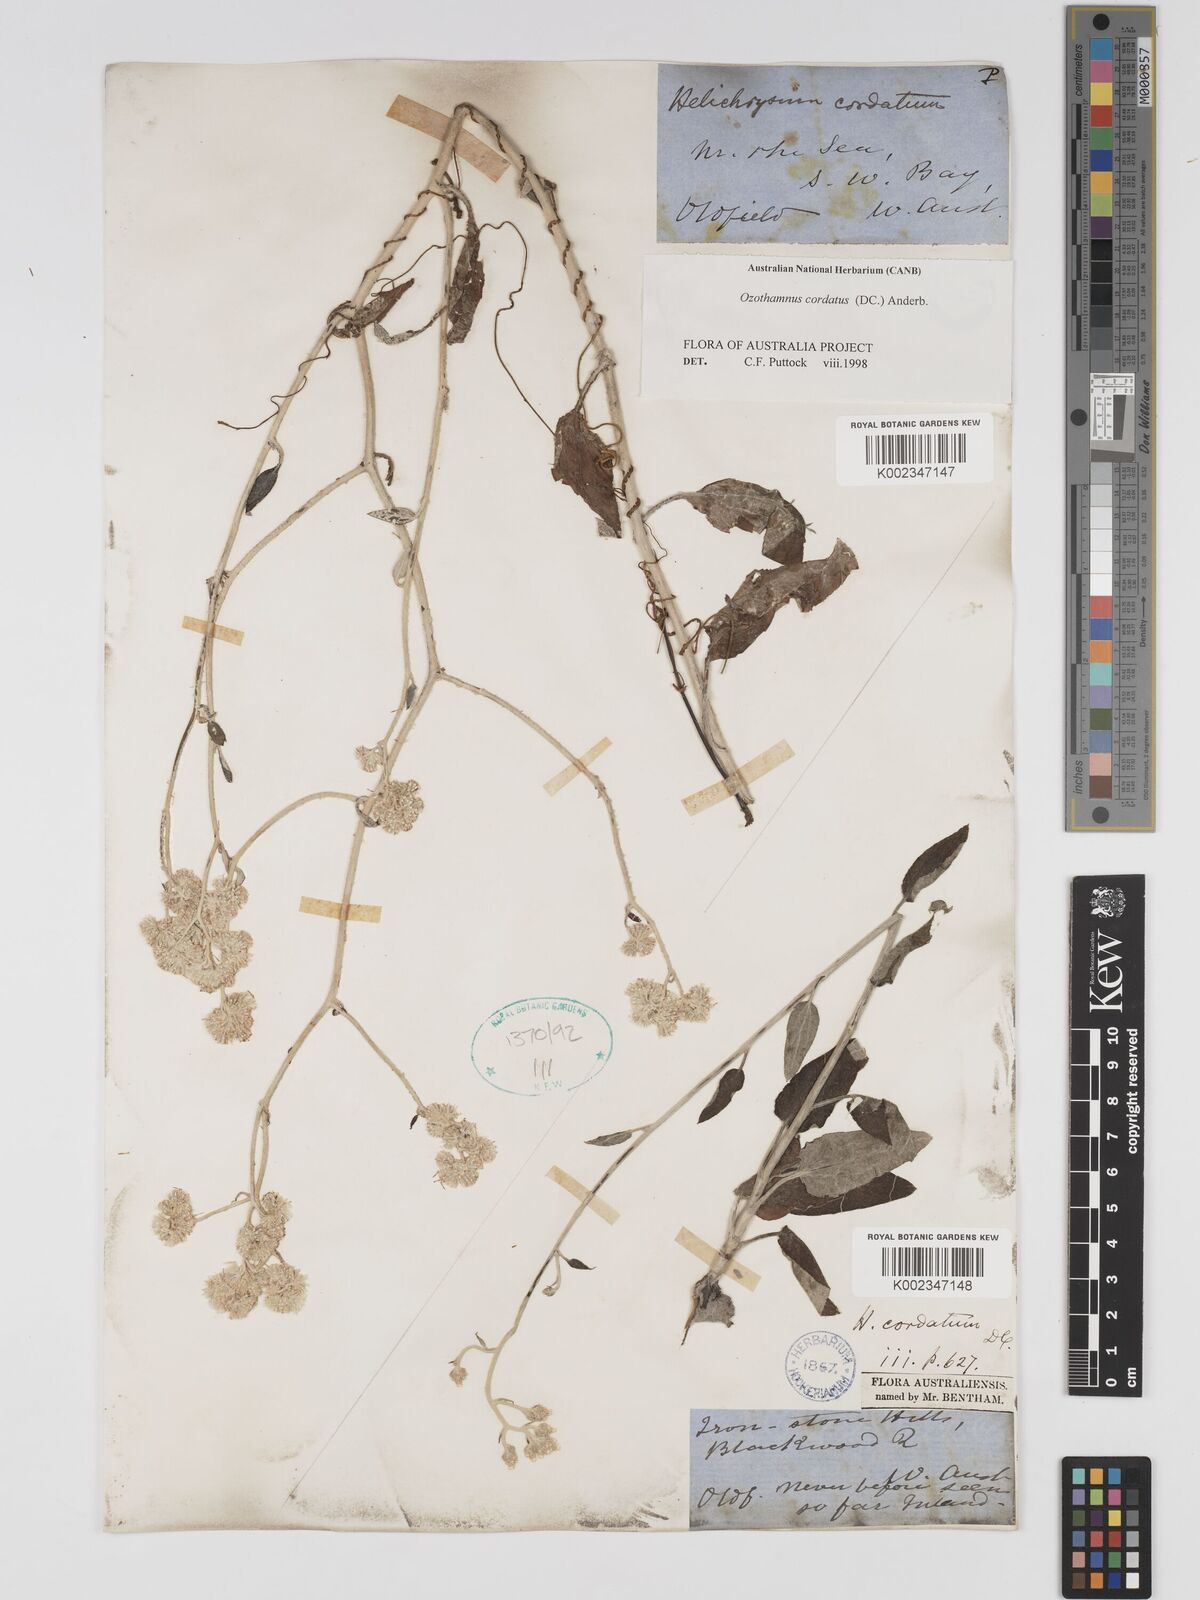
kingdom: Plantae
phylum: Tracheophyta
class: Magnoliopsida
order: Asterales
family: Asteraceae
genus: Ozothamnus
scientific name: Ozothamnus
